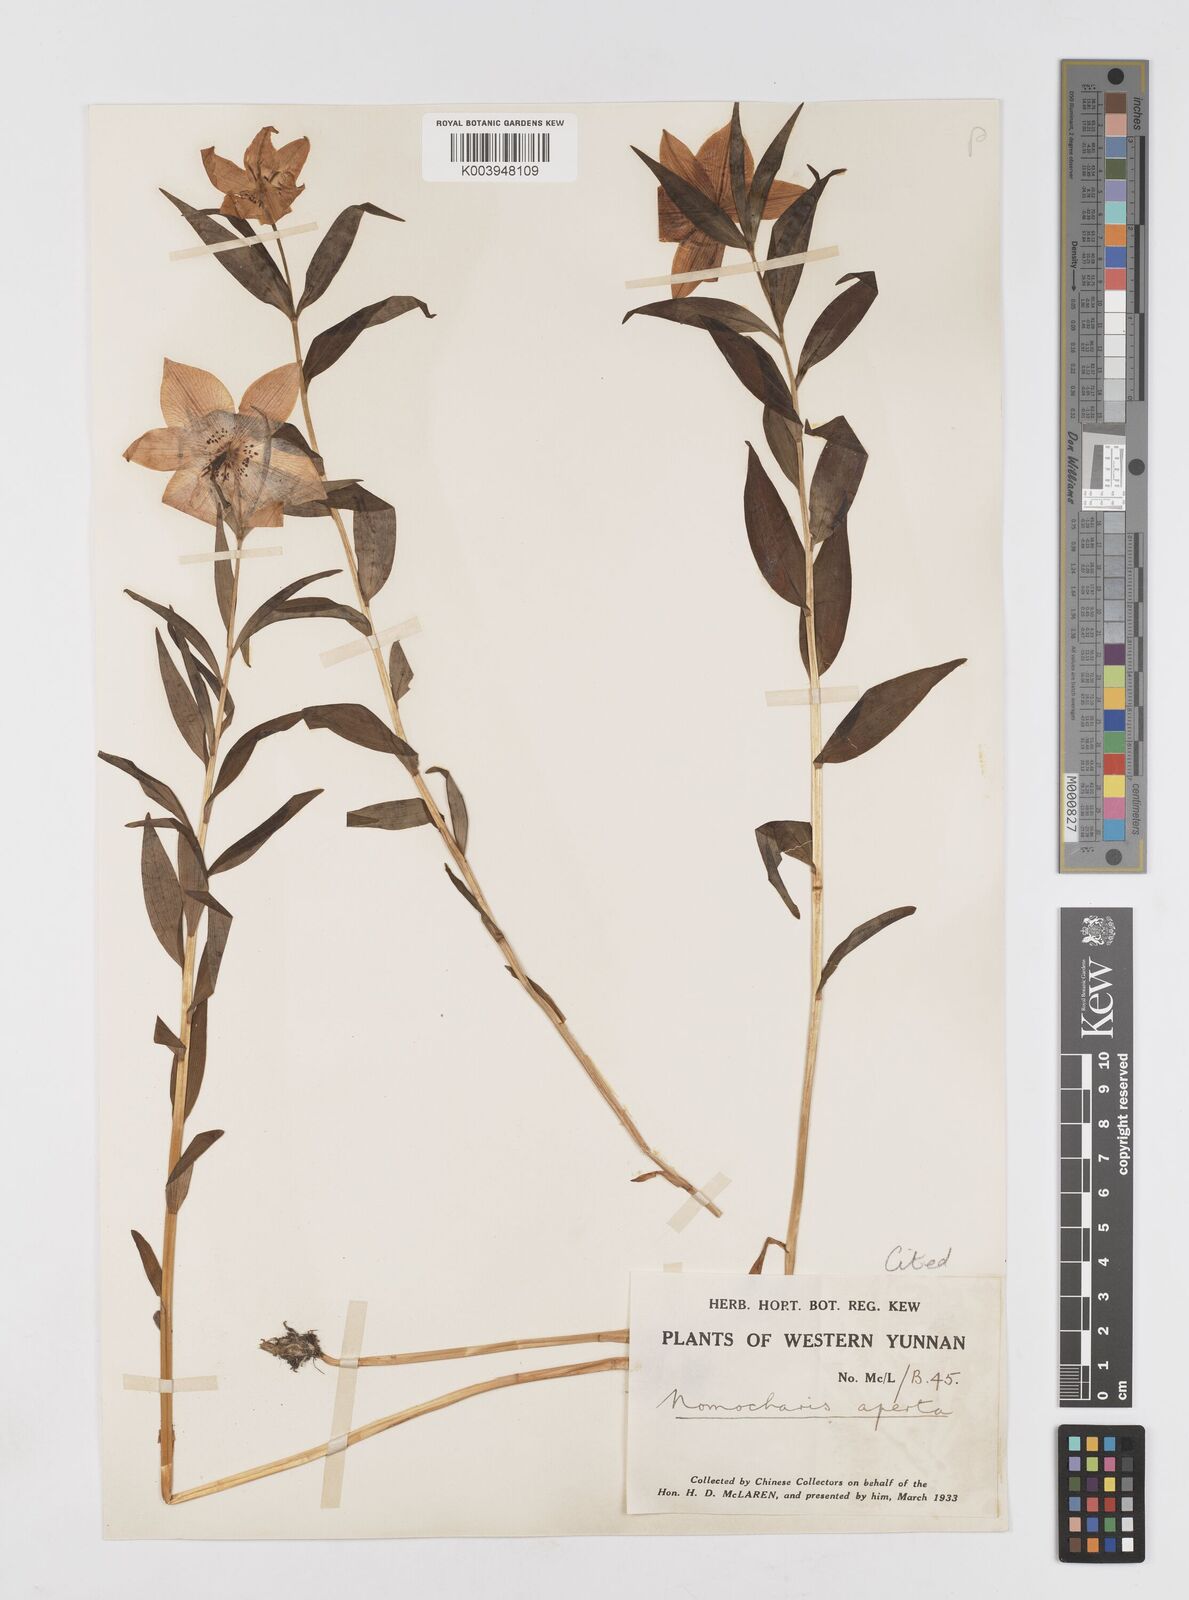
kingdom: Plantae
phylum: Tracheophyta
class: Liliopsida
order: Liliales
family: Liliaceae
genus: Lilium
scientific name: Lilium apertum
